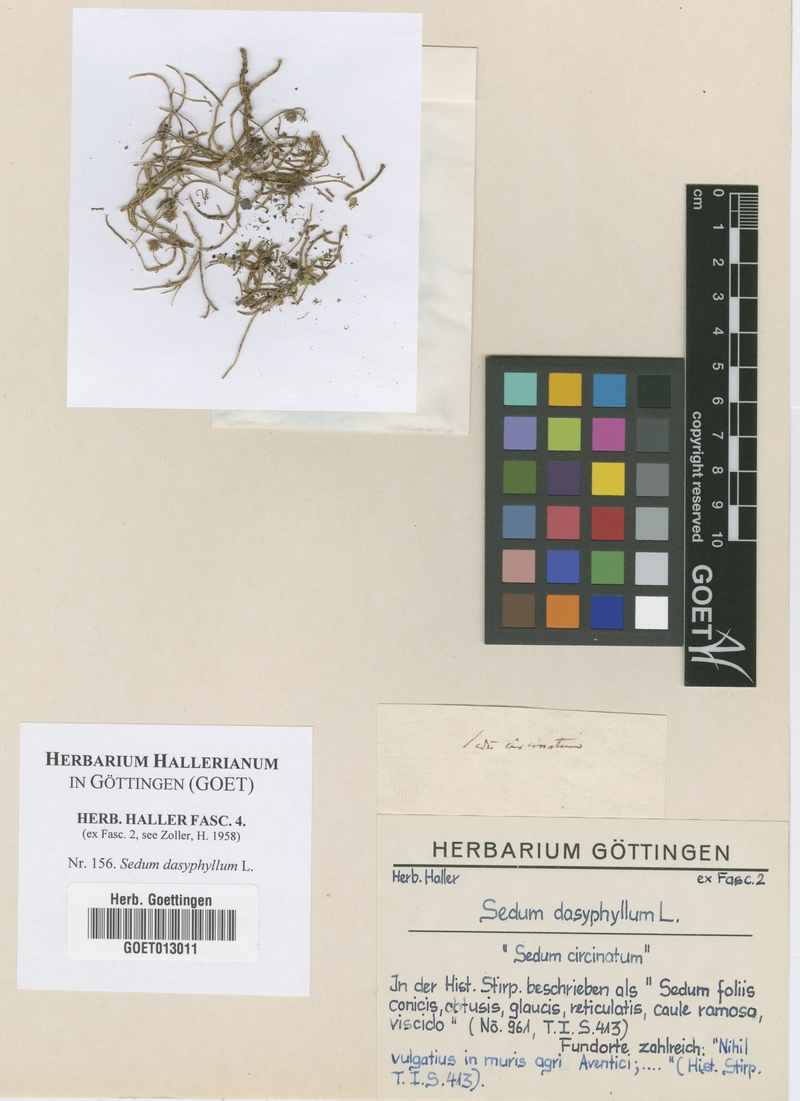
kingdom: Plantae
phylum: Tracheophyta
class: Magnoliopsida
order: Saxifragales
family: Crassulaceae
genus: Sedum
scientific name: Sedum dasyphyllum
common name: Thick-leaf stonecrop
